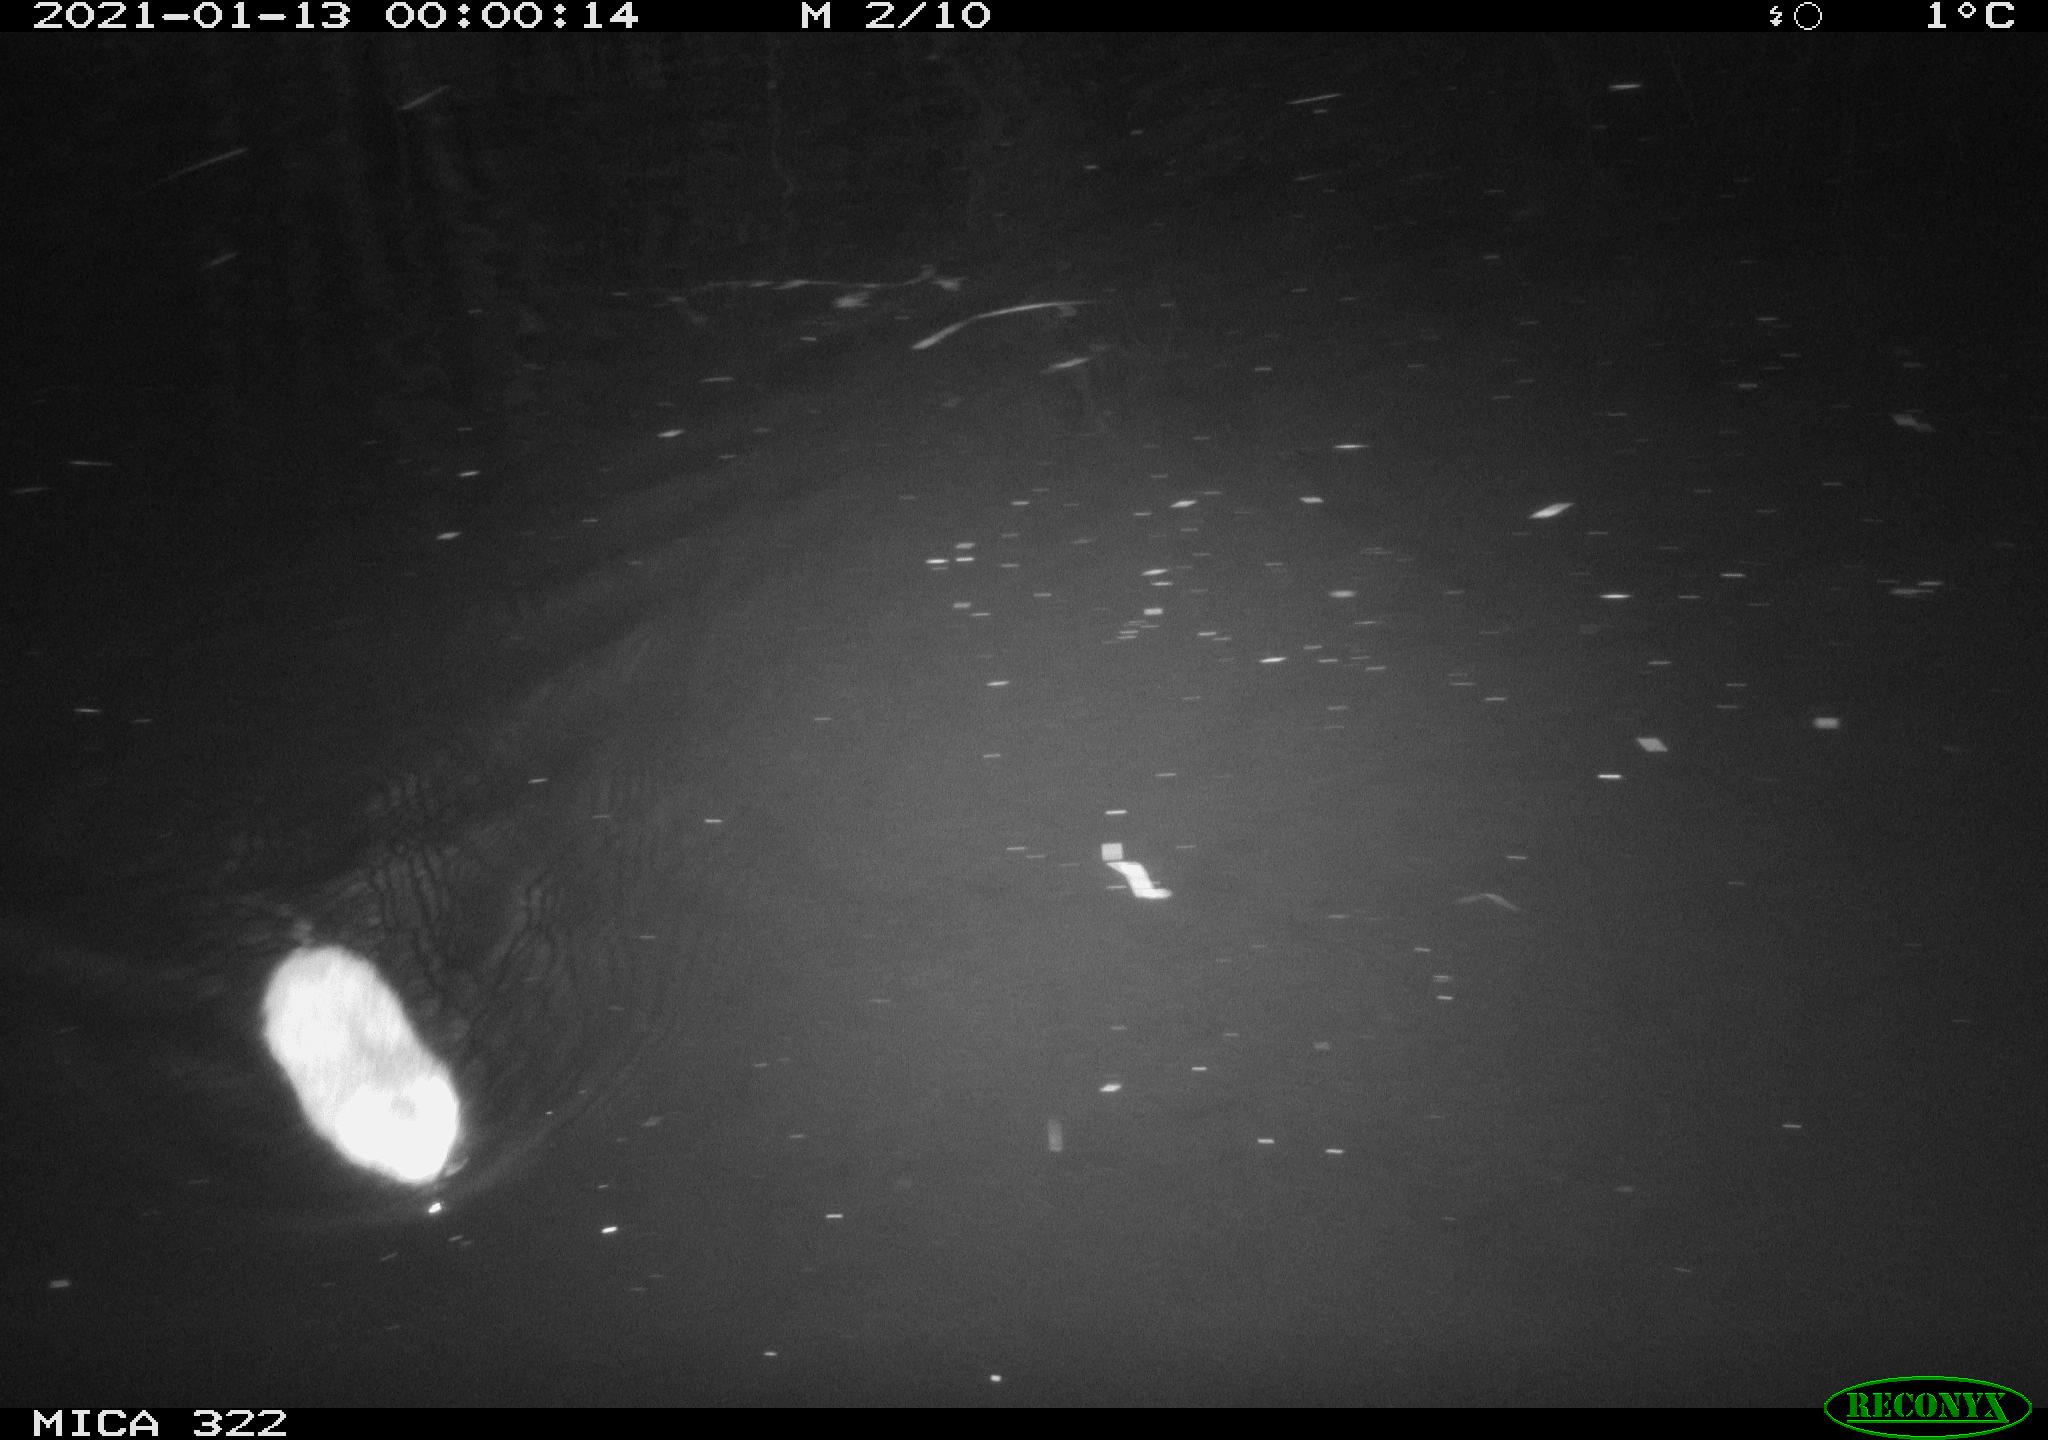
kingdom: Animalia
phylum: Chordata
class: Mammalia
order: Rodentia
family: Muridae
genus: Rattus
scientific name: Rattus norvegicus
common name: Brown rat
